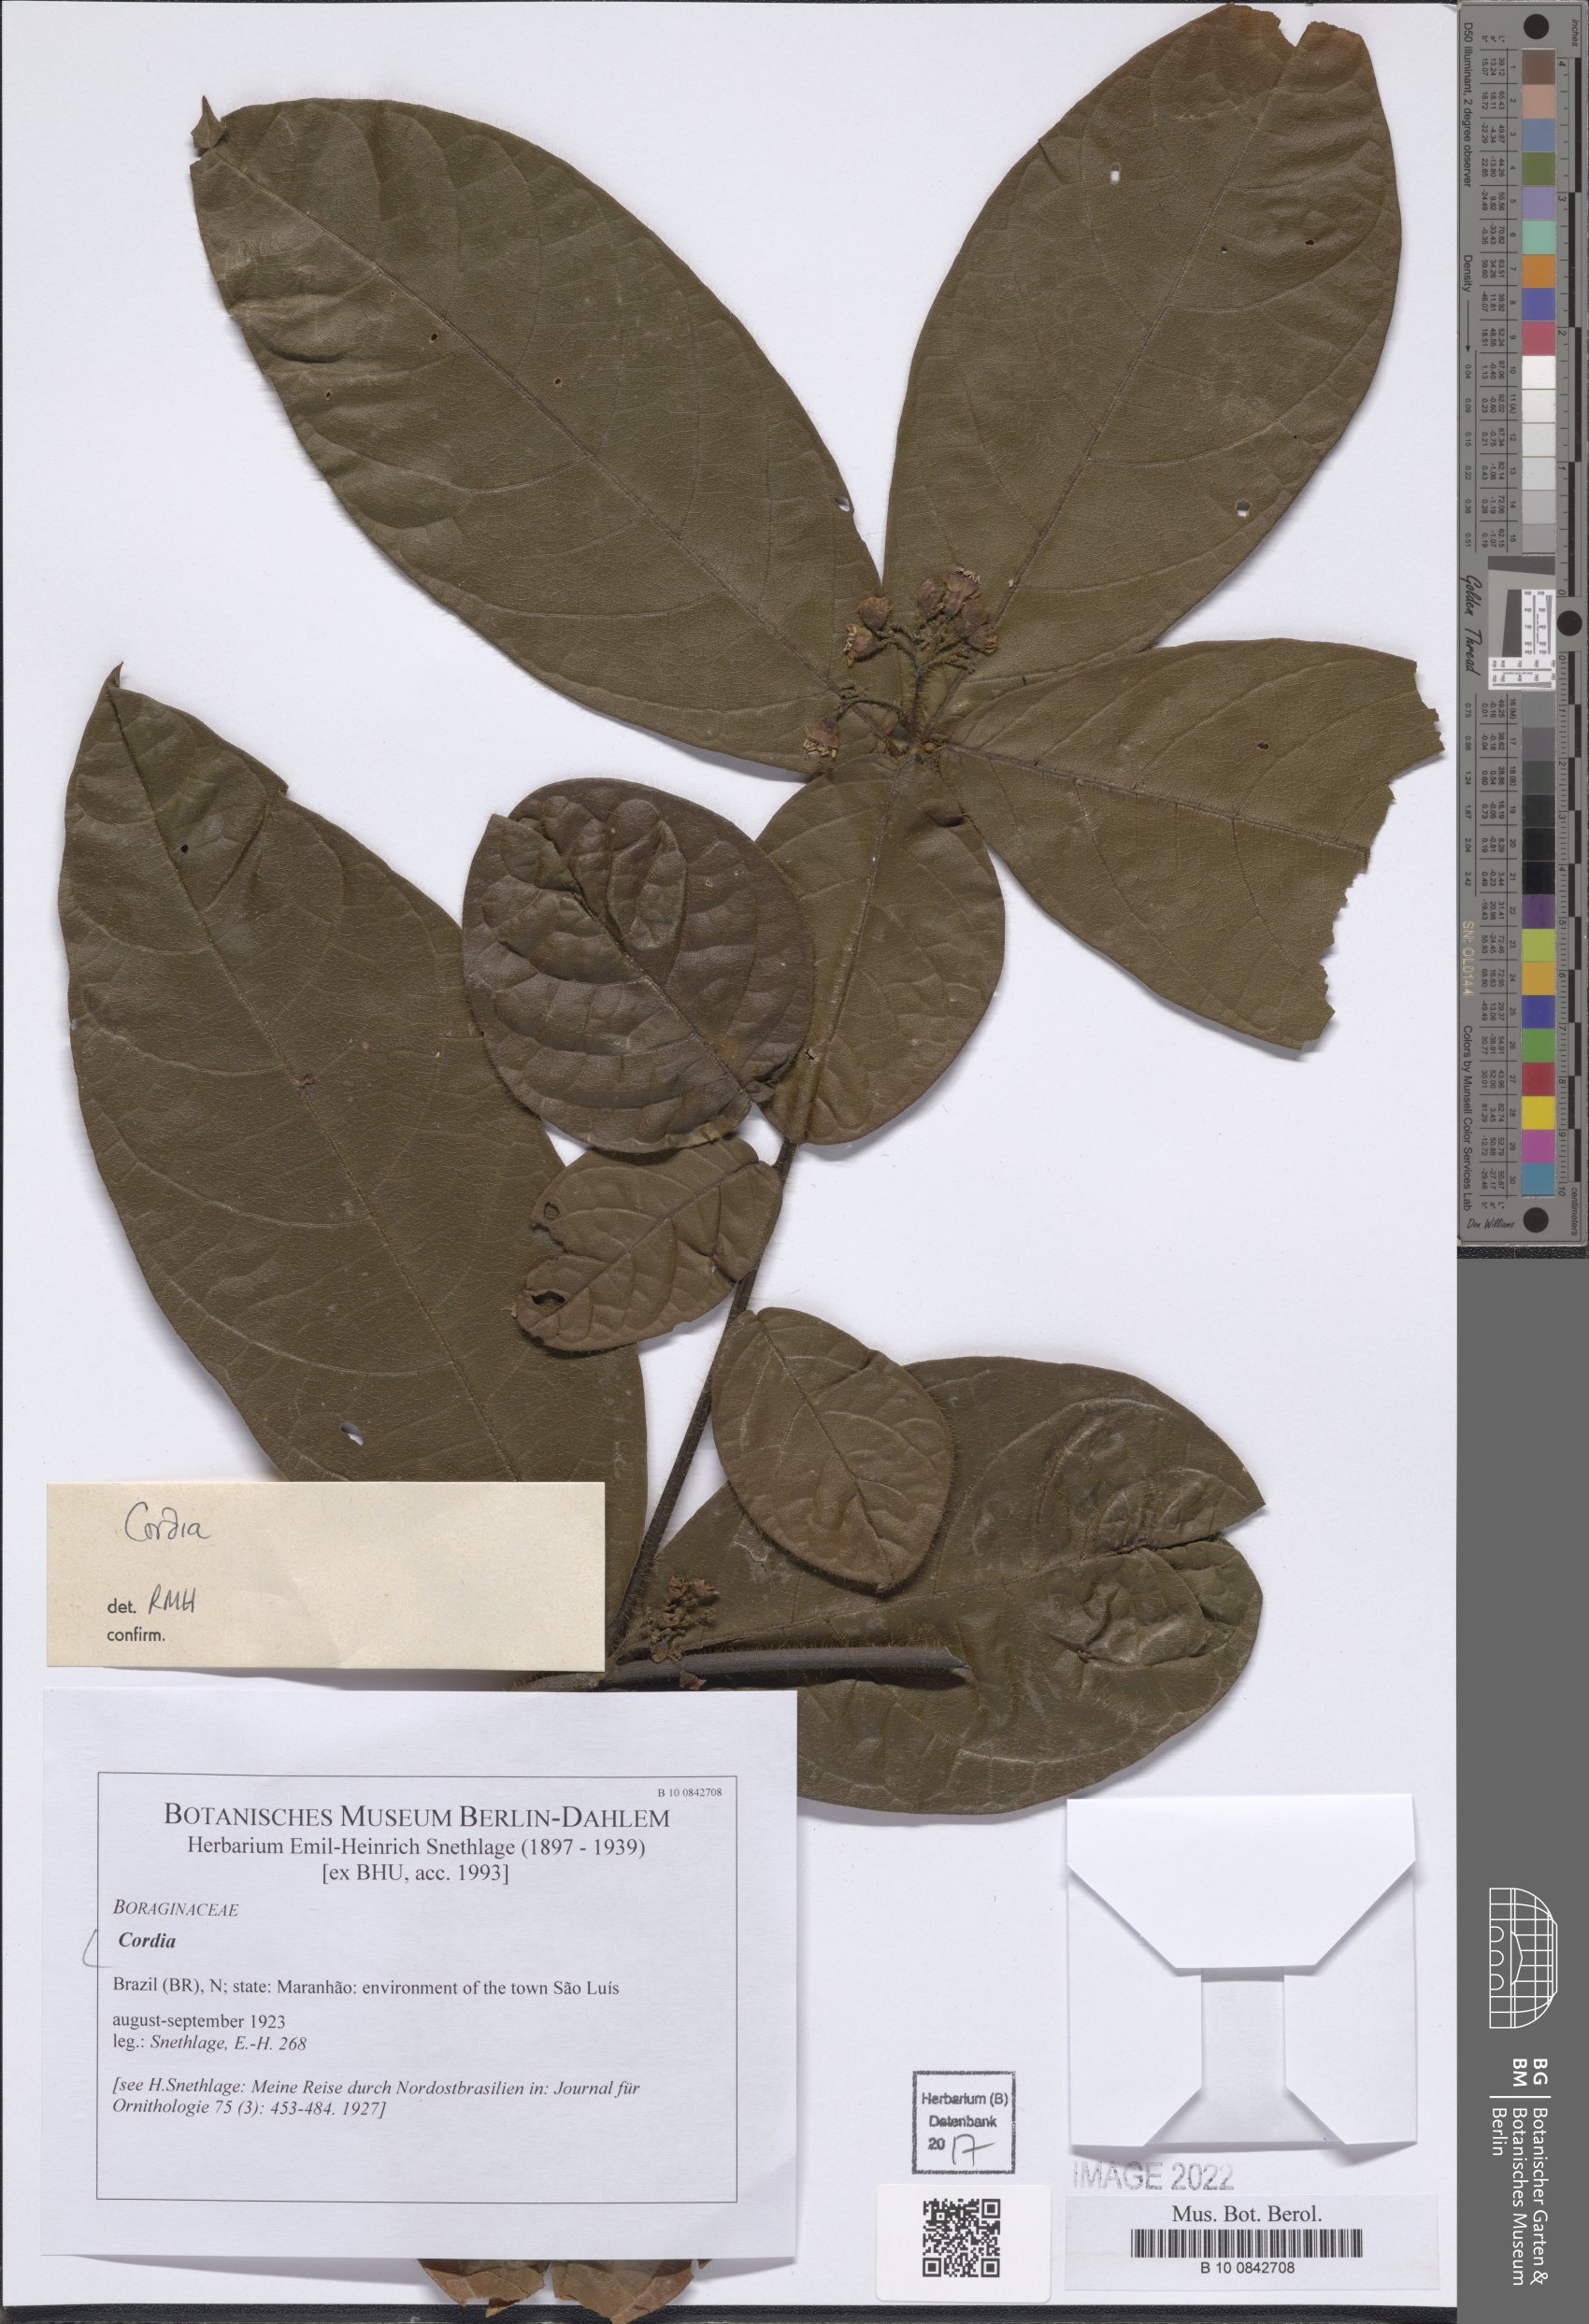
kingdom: Plantae
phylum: Tracheophyta
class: Magnoliopsida
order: Boraginales
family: Cordiaceae
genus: Cordia
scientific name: Cordia
